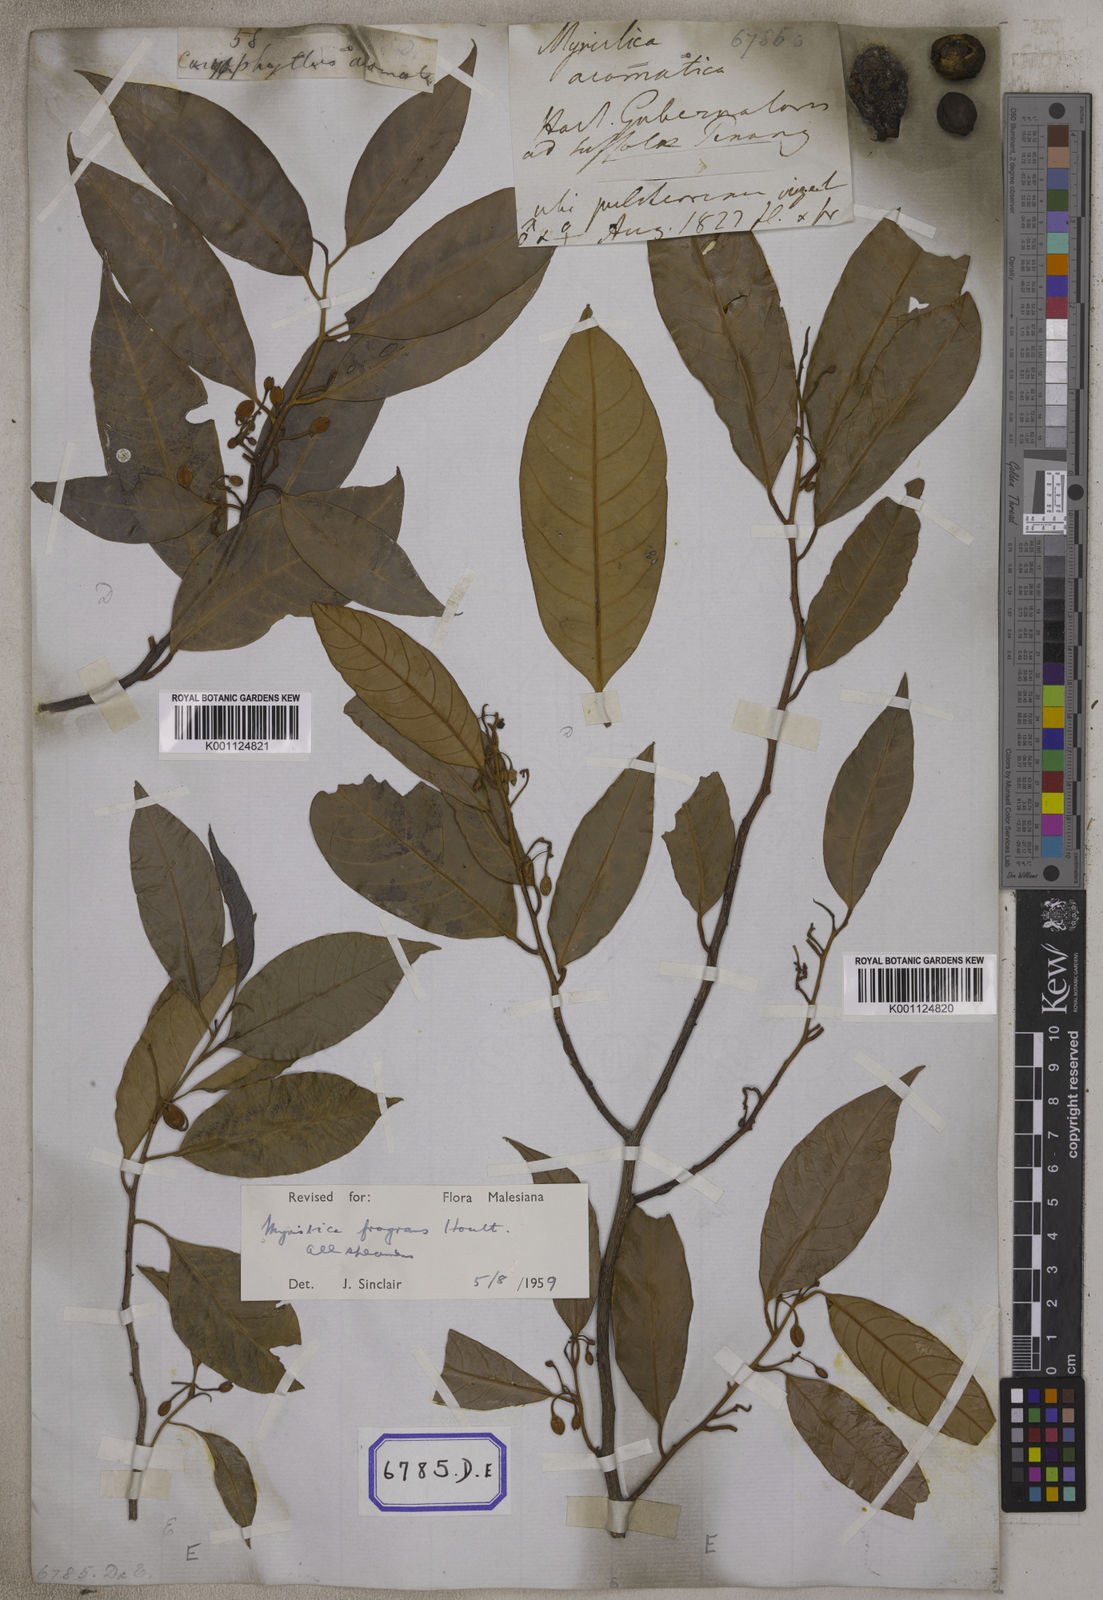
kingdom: Plantae
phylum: Tracheophyta
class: Magnoliopsida
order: Magnoliales
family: Myristicaceae
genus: Myristica
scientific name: Myristica fragrans
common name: Nutmeg
